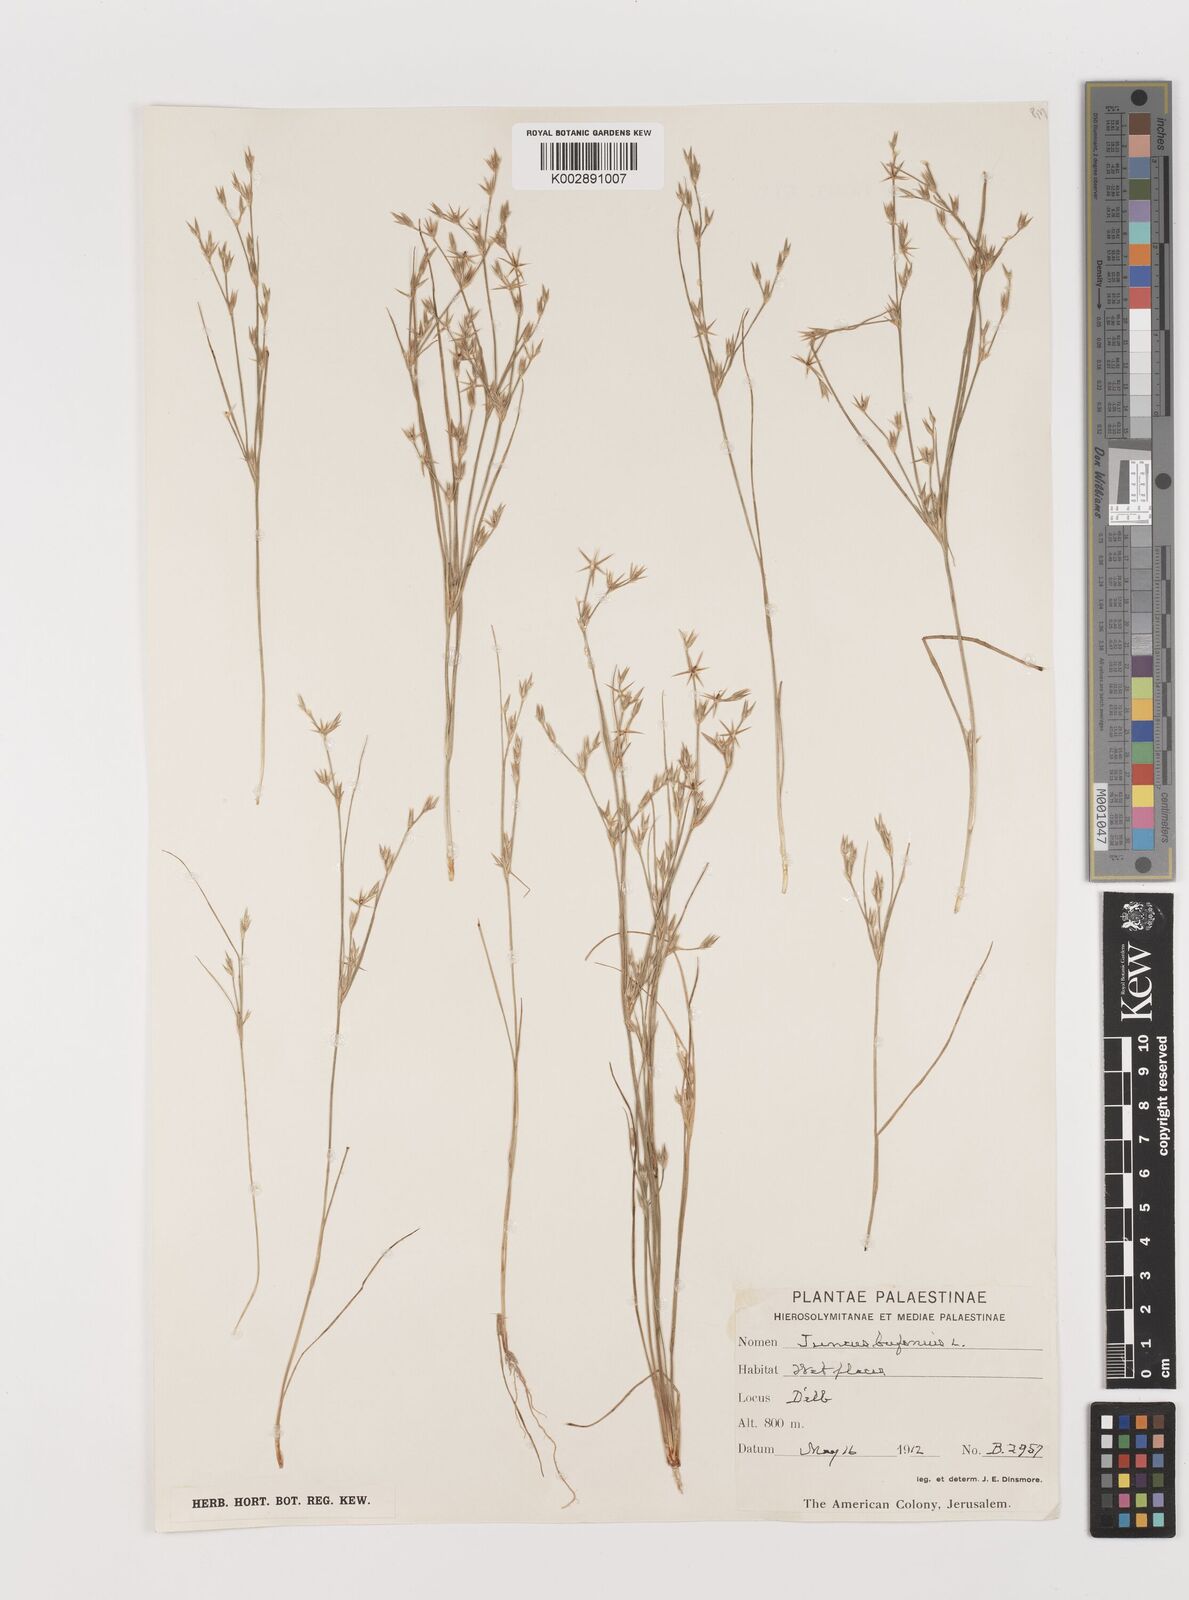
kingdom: Plantae
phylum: Tracheophyta
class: Liliopsida
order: Poales
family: Juncaceae
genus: Juncus
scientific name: Juncus bufonius
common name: Toad rush
